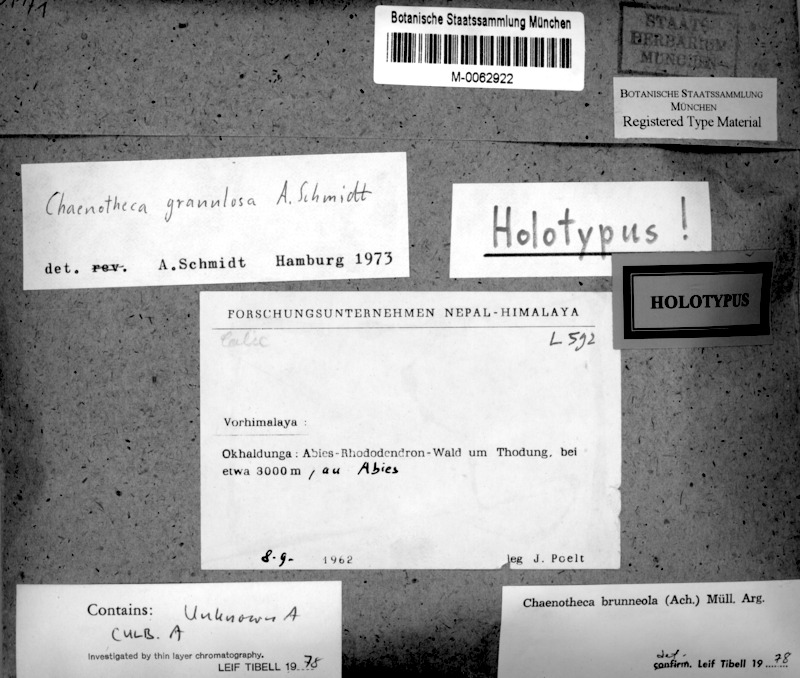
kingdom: Fungi
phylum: Ascomycota
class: Coniocybomycetes
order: Coniocybales
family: Coniocybaceae
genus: Chaenotheca
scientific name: Chaenotheca brunneola
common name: Pinhead lichen
